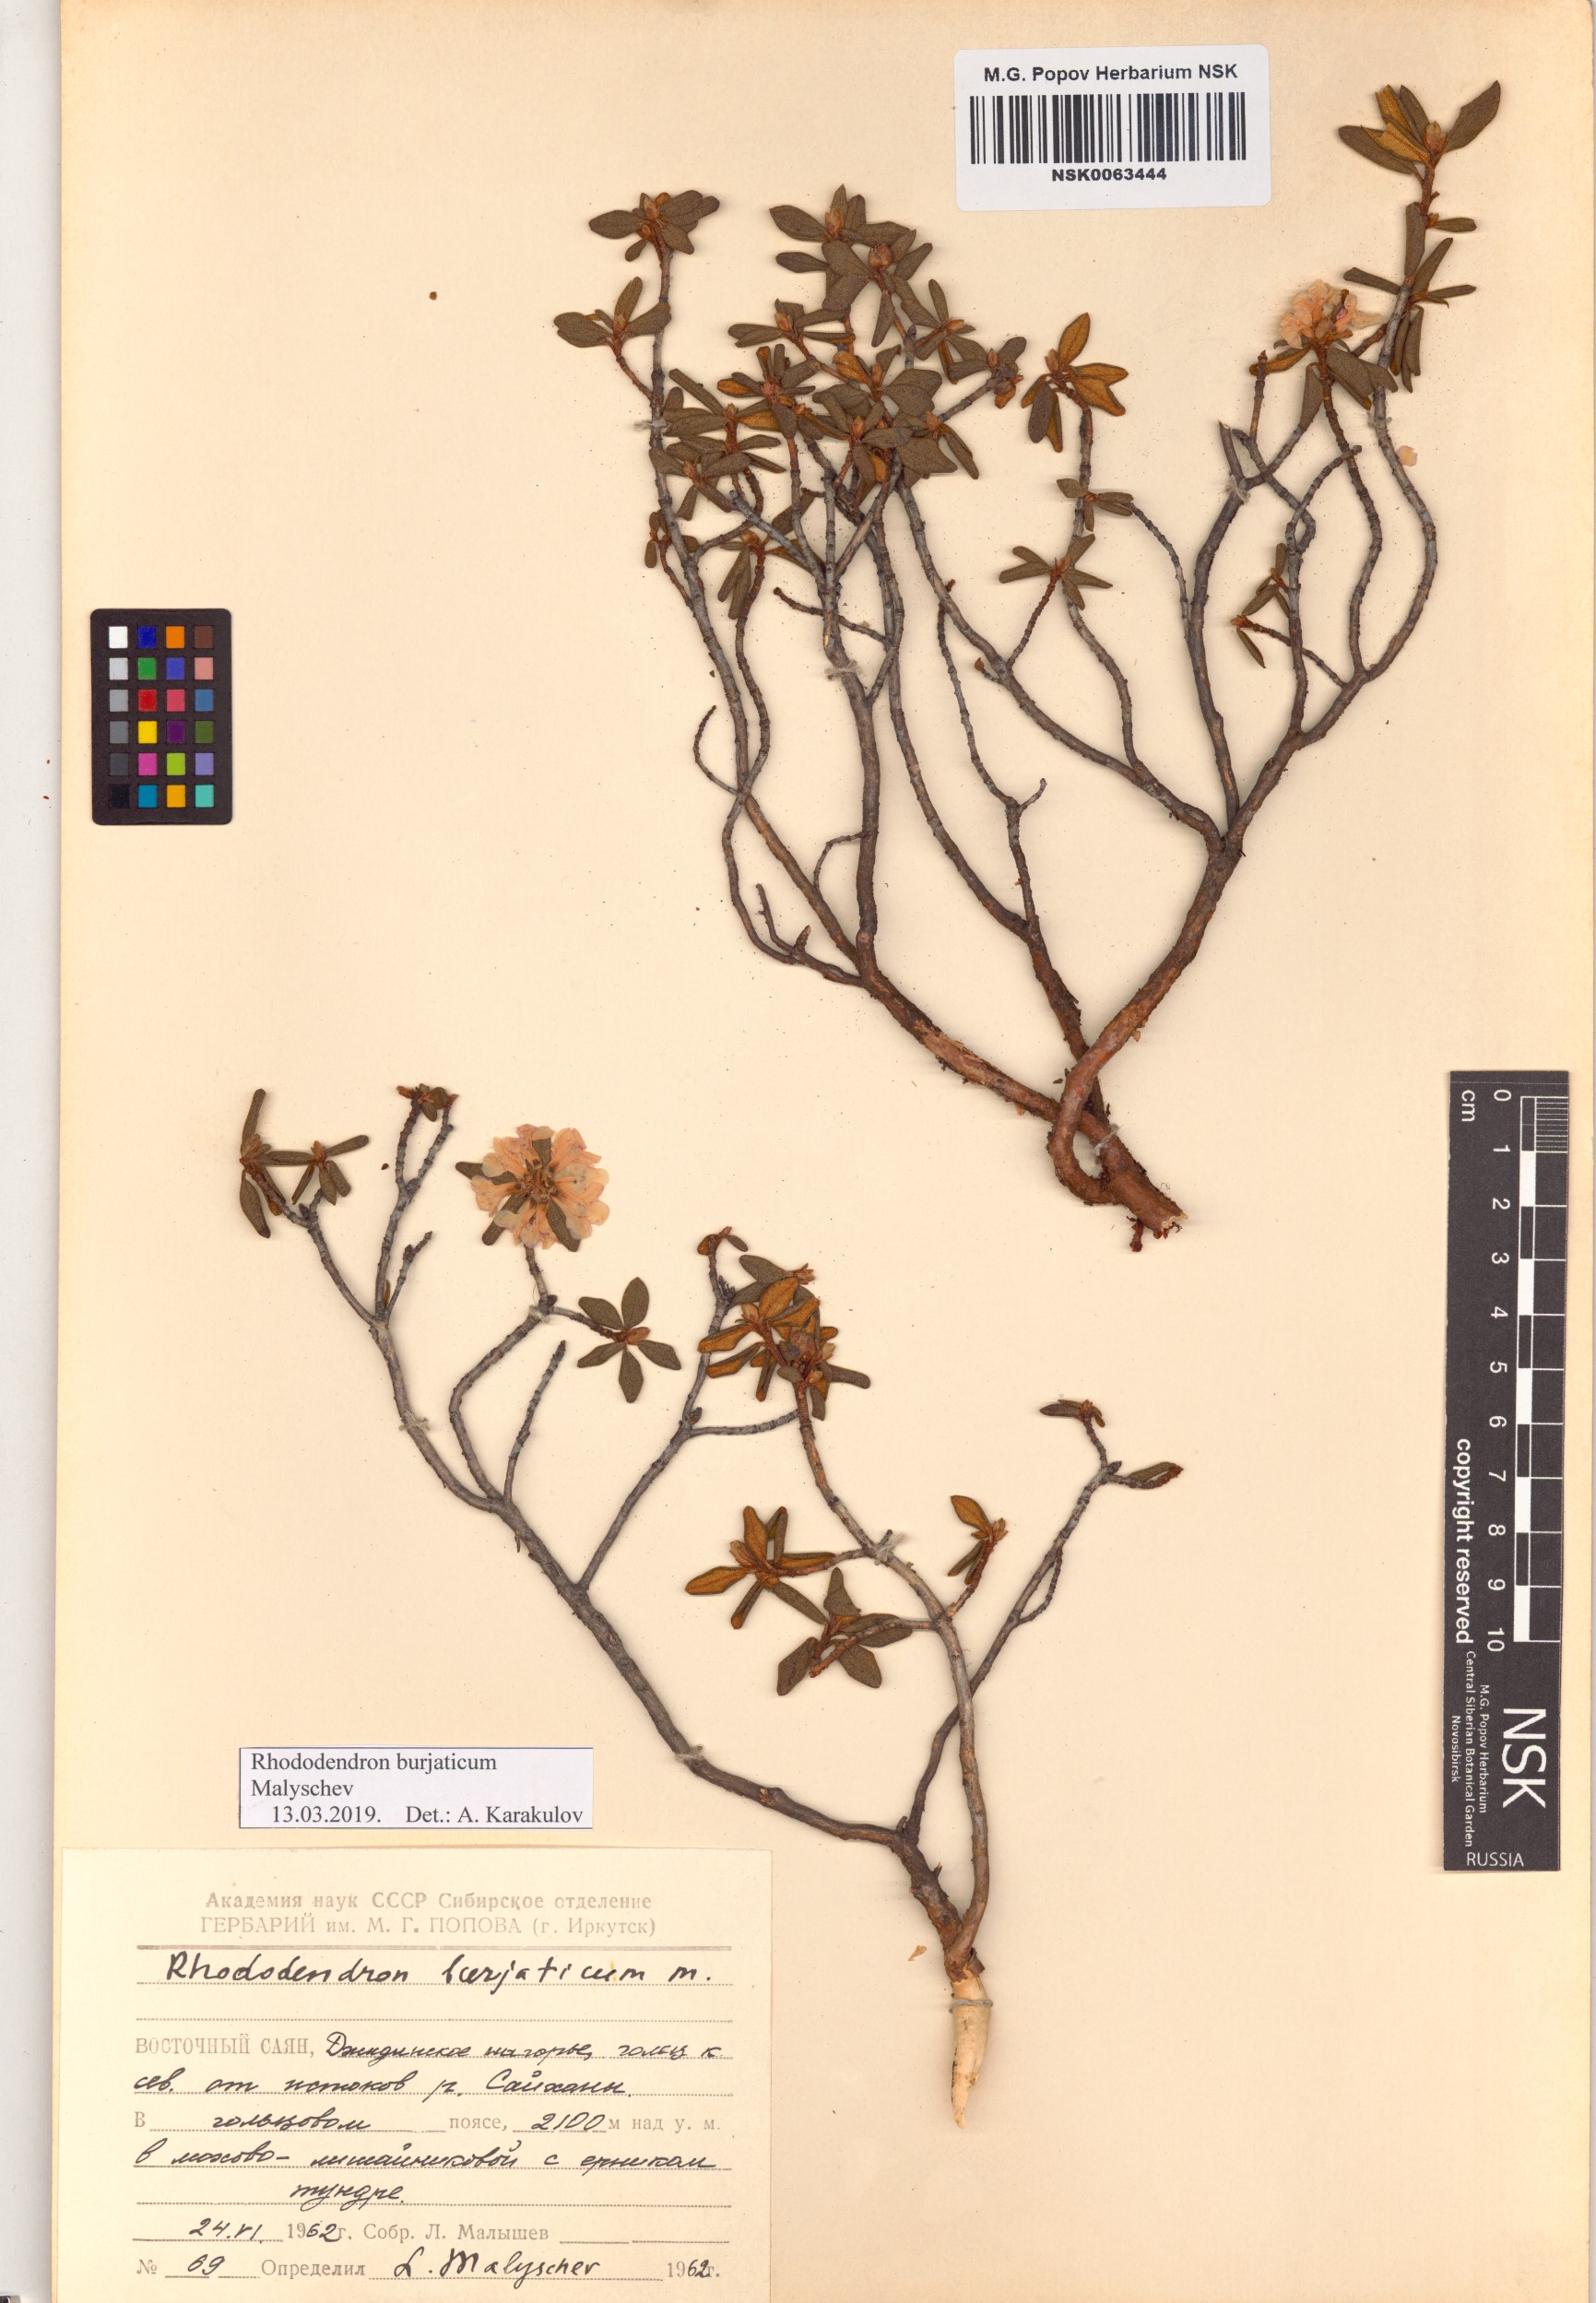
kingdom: Plantae
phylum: Tracheophyta
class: Magnoliopsida
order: Ericales
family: Ericaceae
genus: Rhododendron
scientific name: Rhododendron burjaticum
